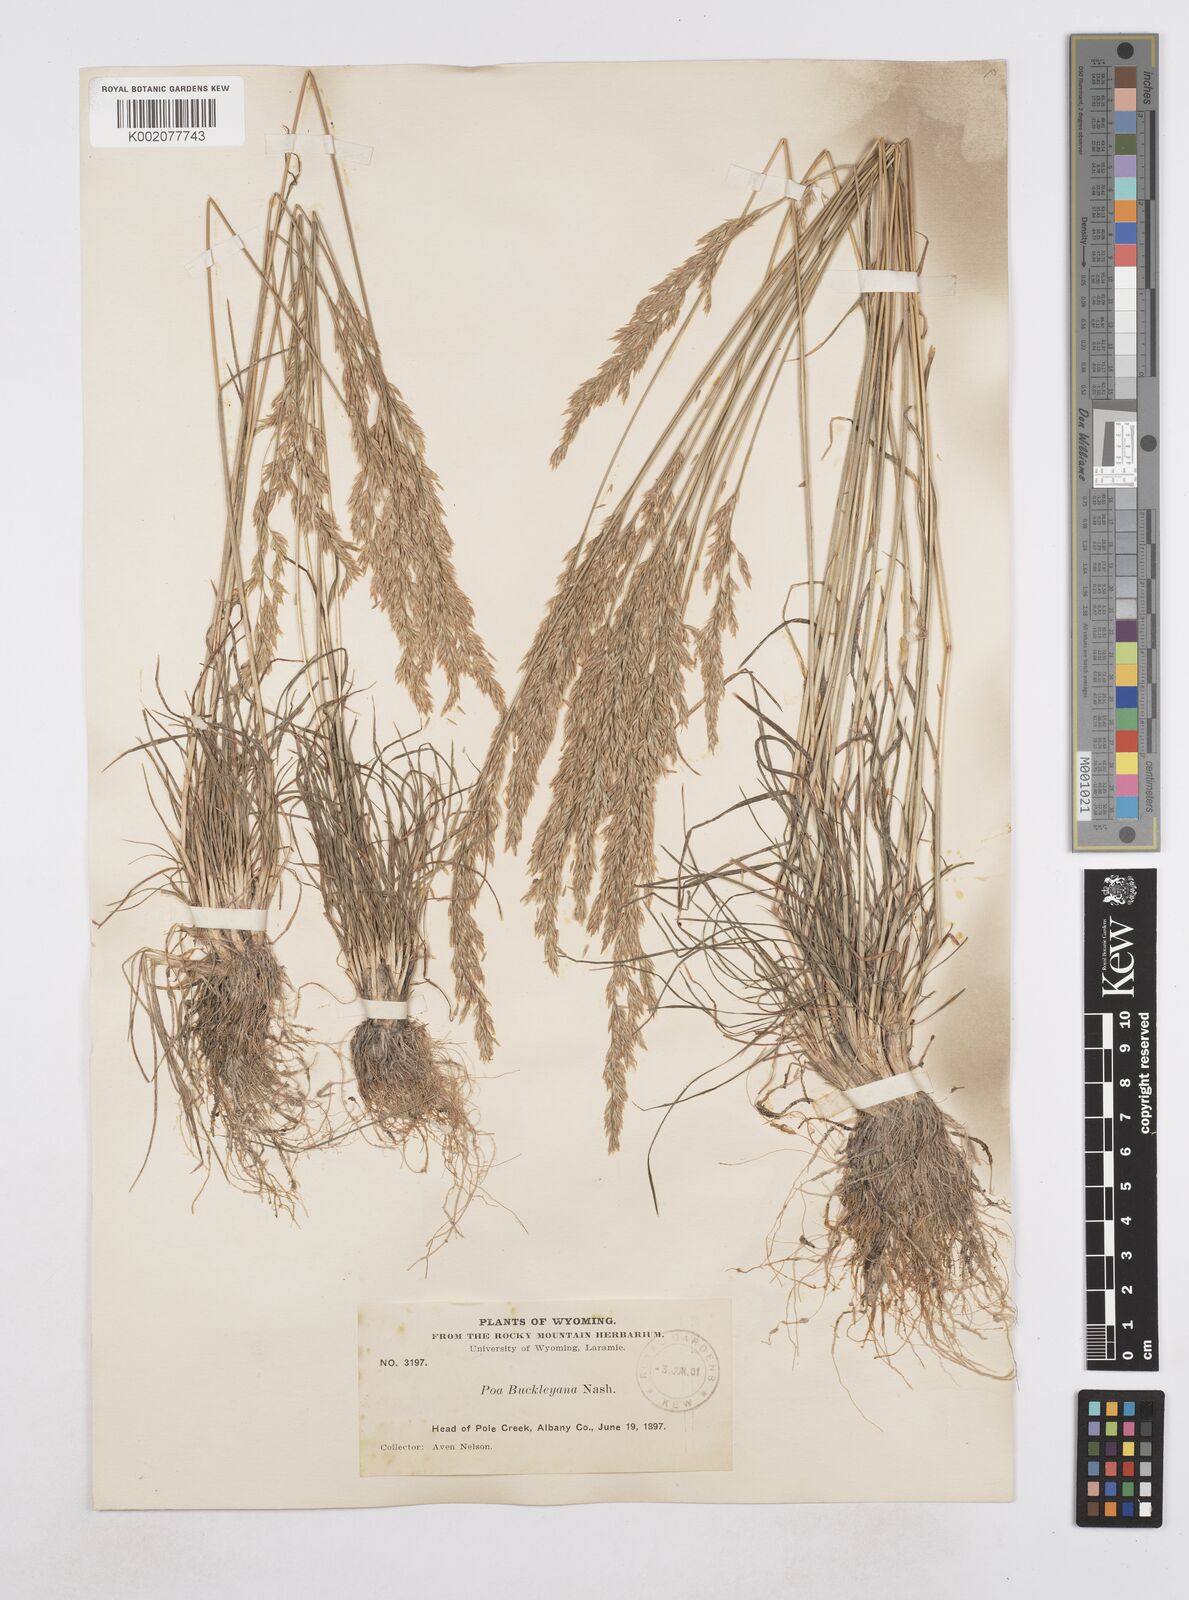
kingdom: Plantae
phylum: Tracheophyta
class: Liliopsida
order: Poales
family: Poaceae
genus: Poa
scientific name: Poa secunda
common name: Sandberg bluegrass
